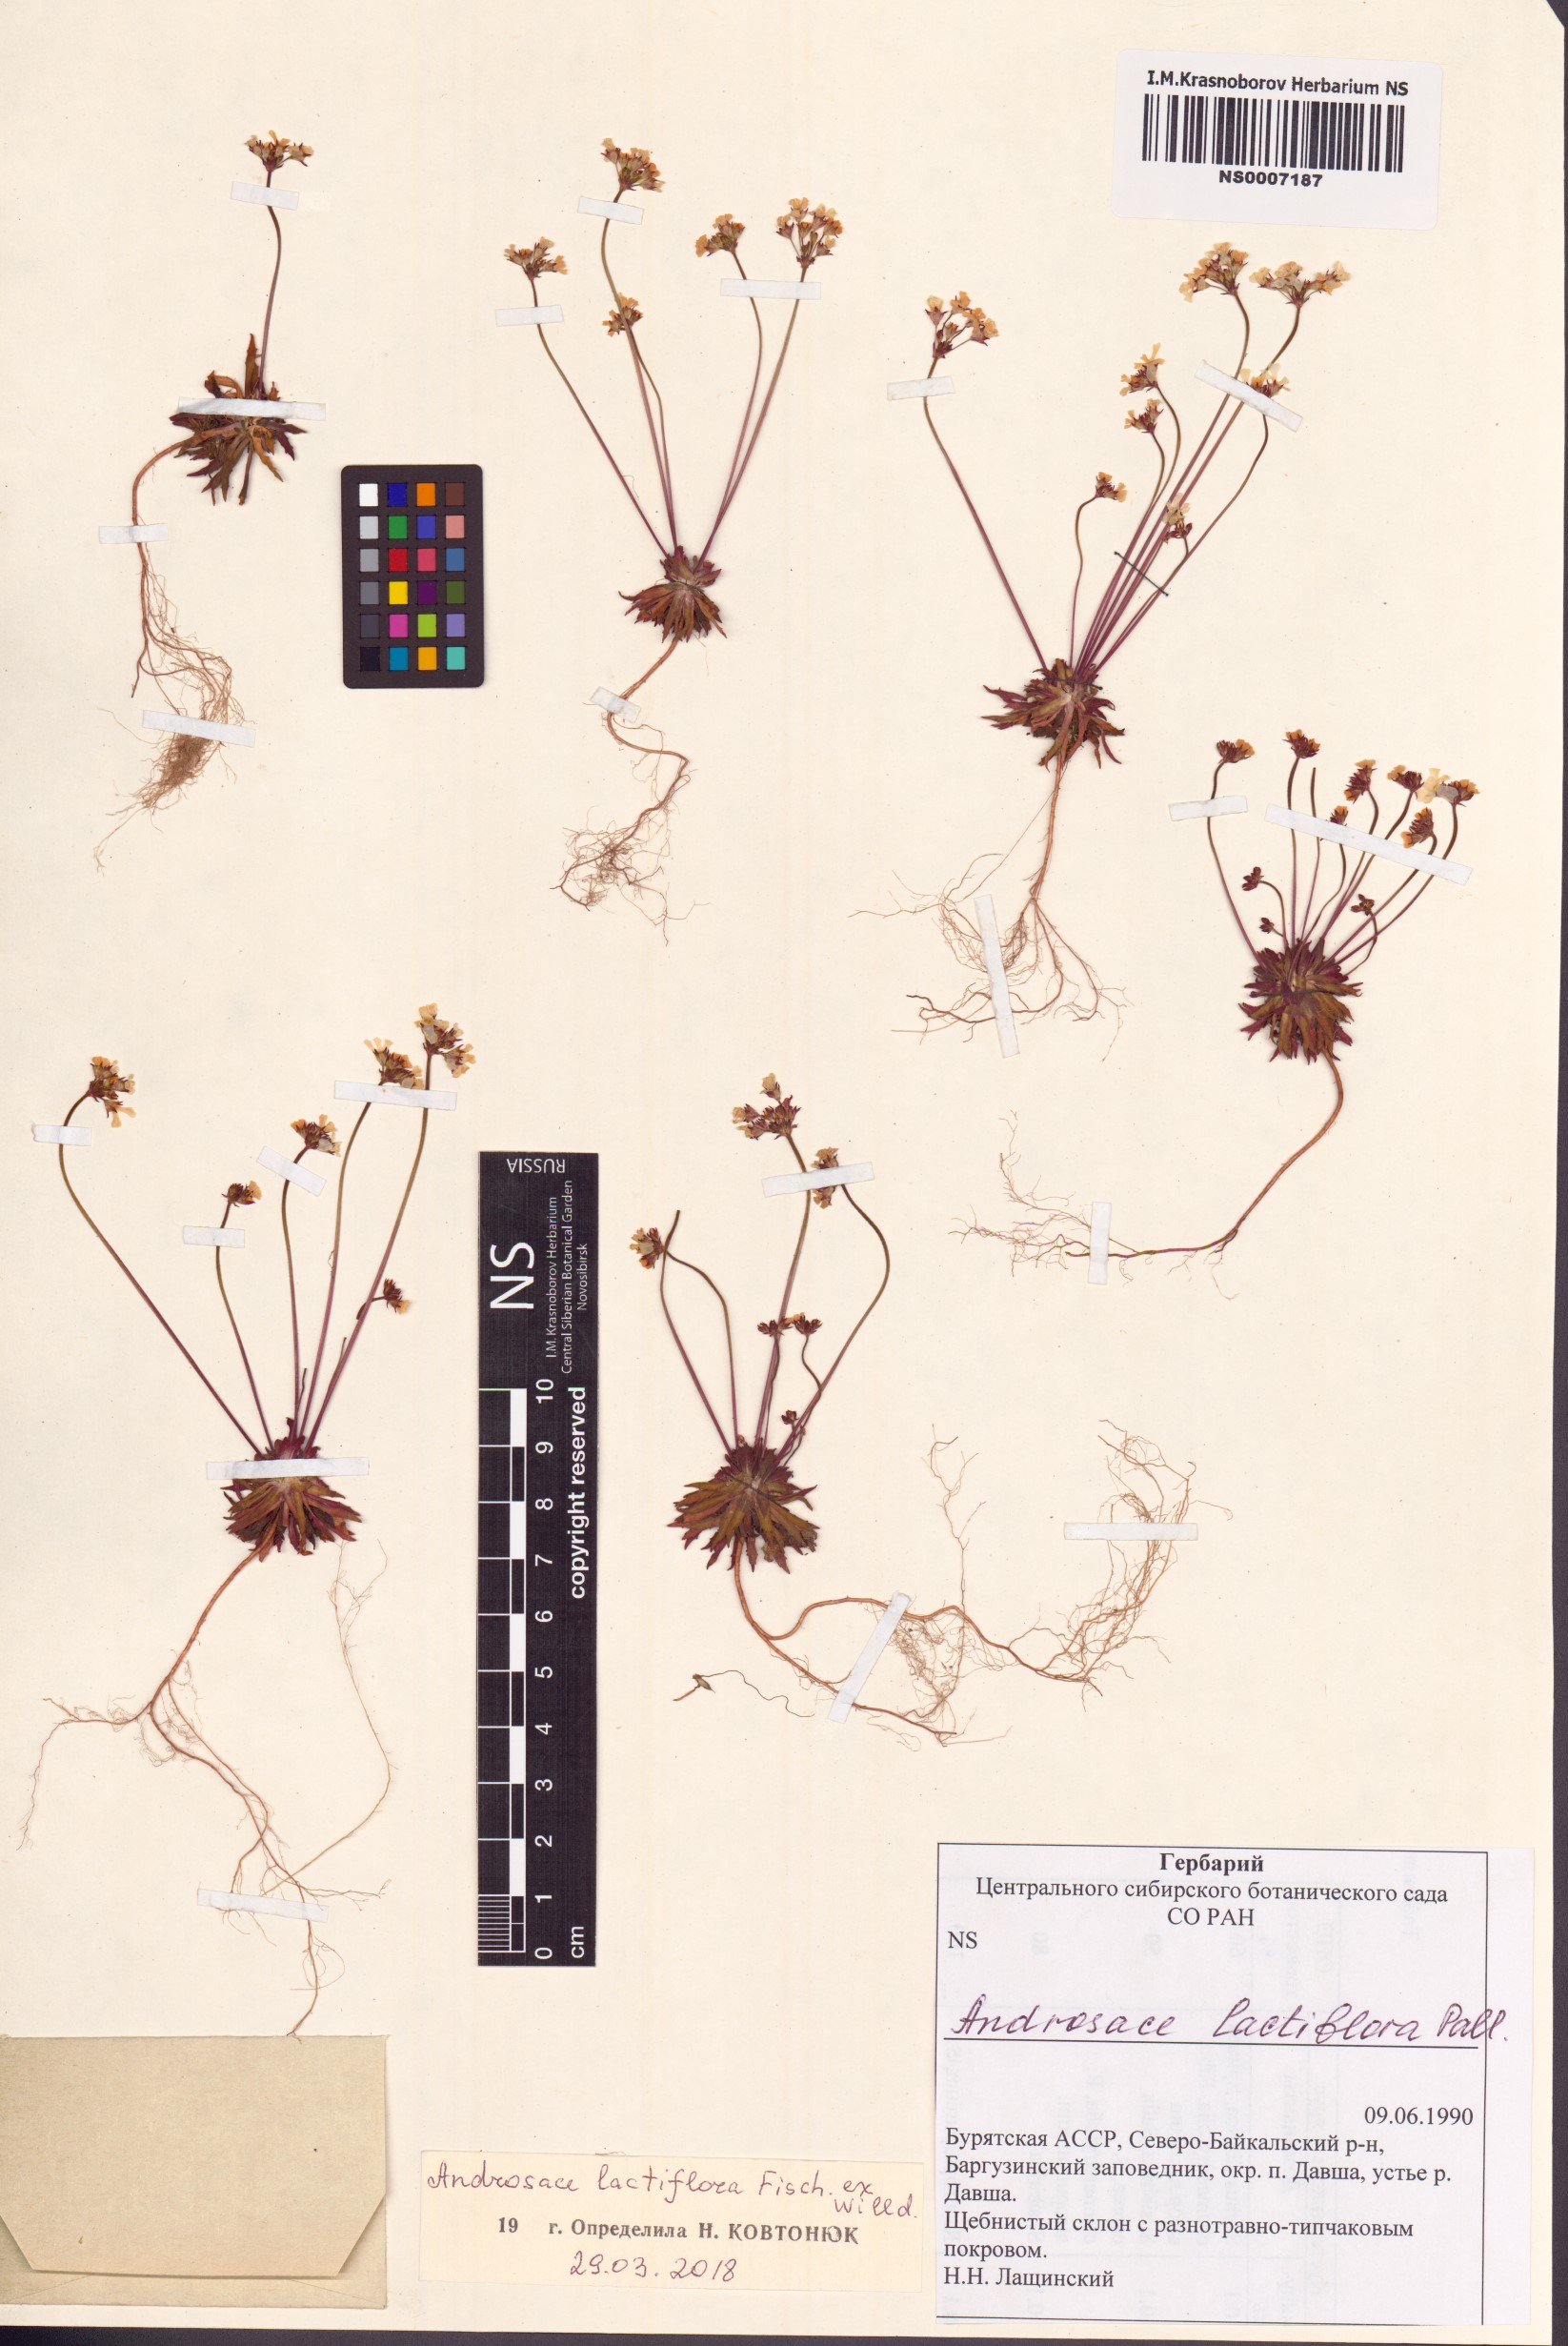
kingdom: Plantae
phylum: Tracheophyta
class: Magnoliopsida
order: Ericales
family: Primulaceae
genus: Androsace
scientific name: Androsace lactiflora
